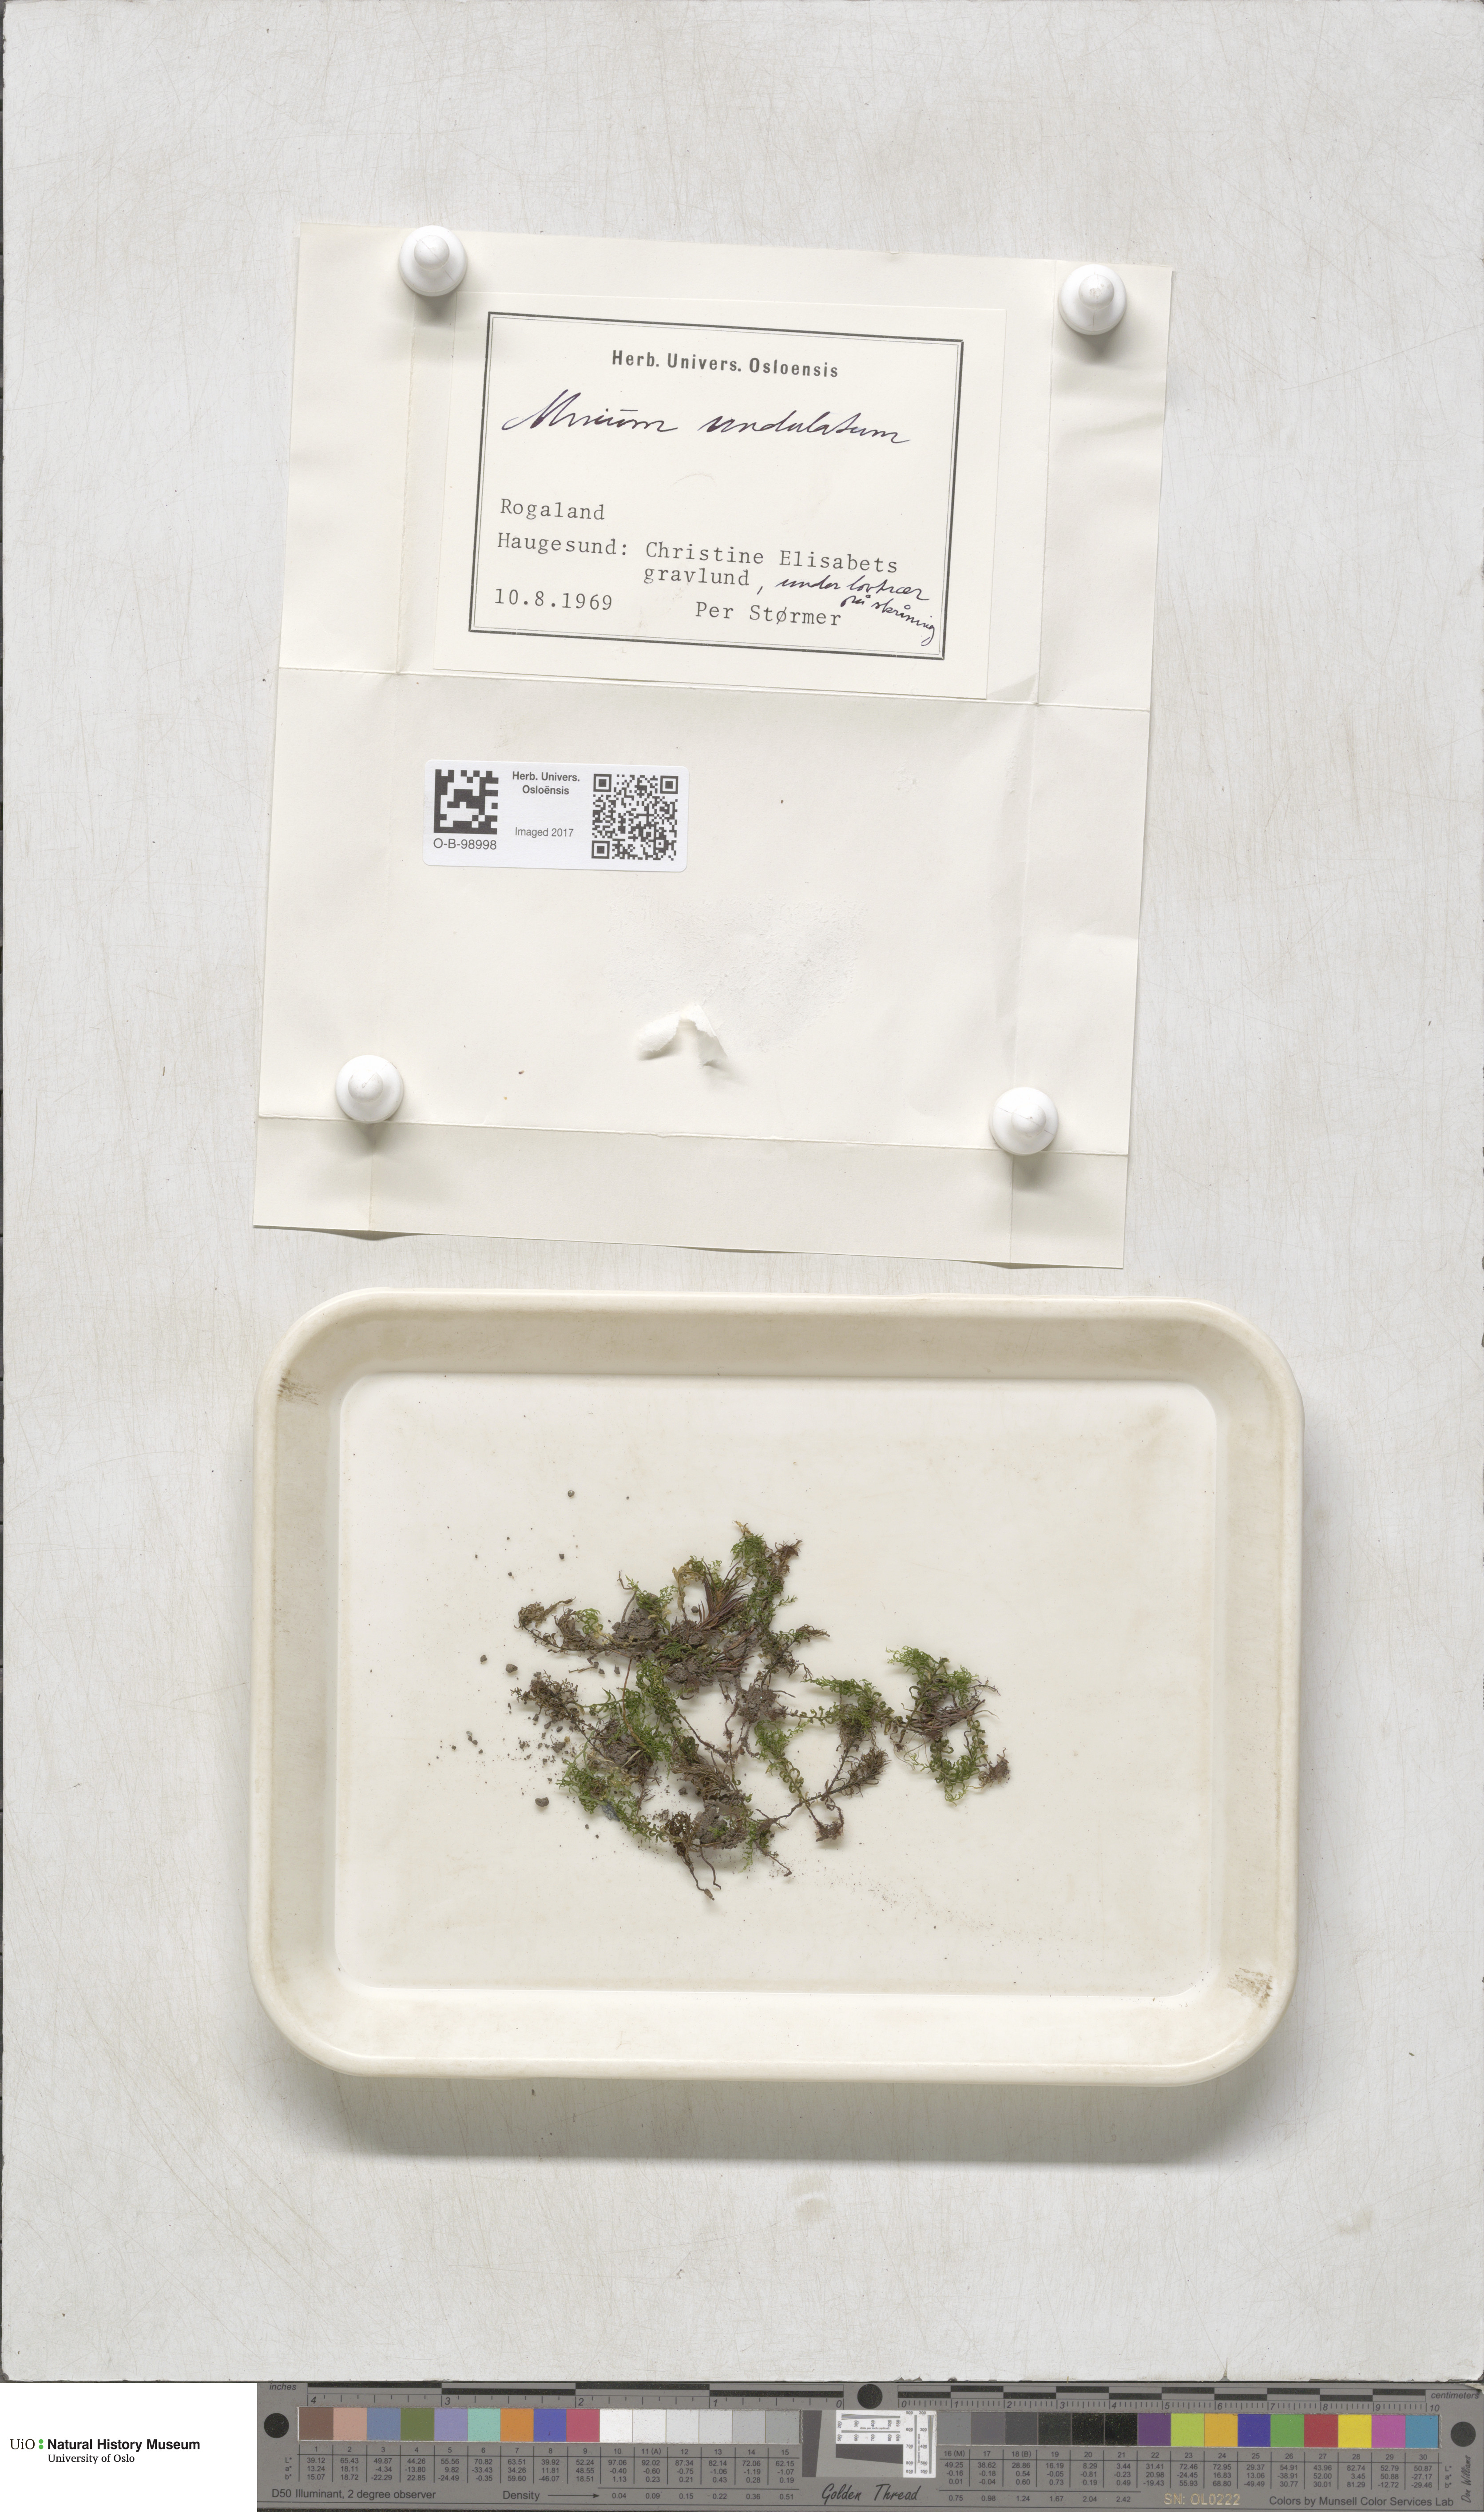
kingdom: Plantae
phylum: Bryophyta
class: Bryopsida
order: Bryales
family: Mniaceae
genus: Plagiomnium
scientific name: Plagiomnium undulatum
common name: Hart's-tongue thyme-moss
